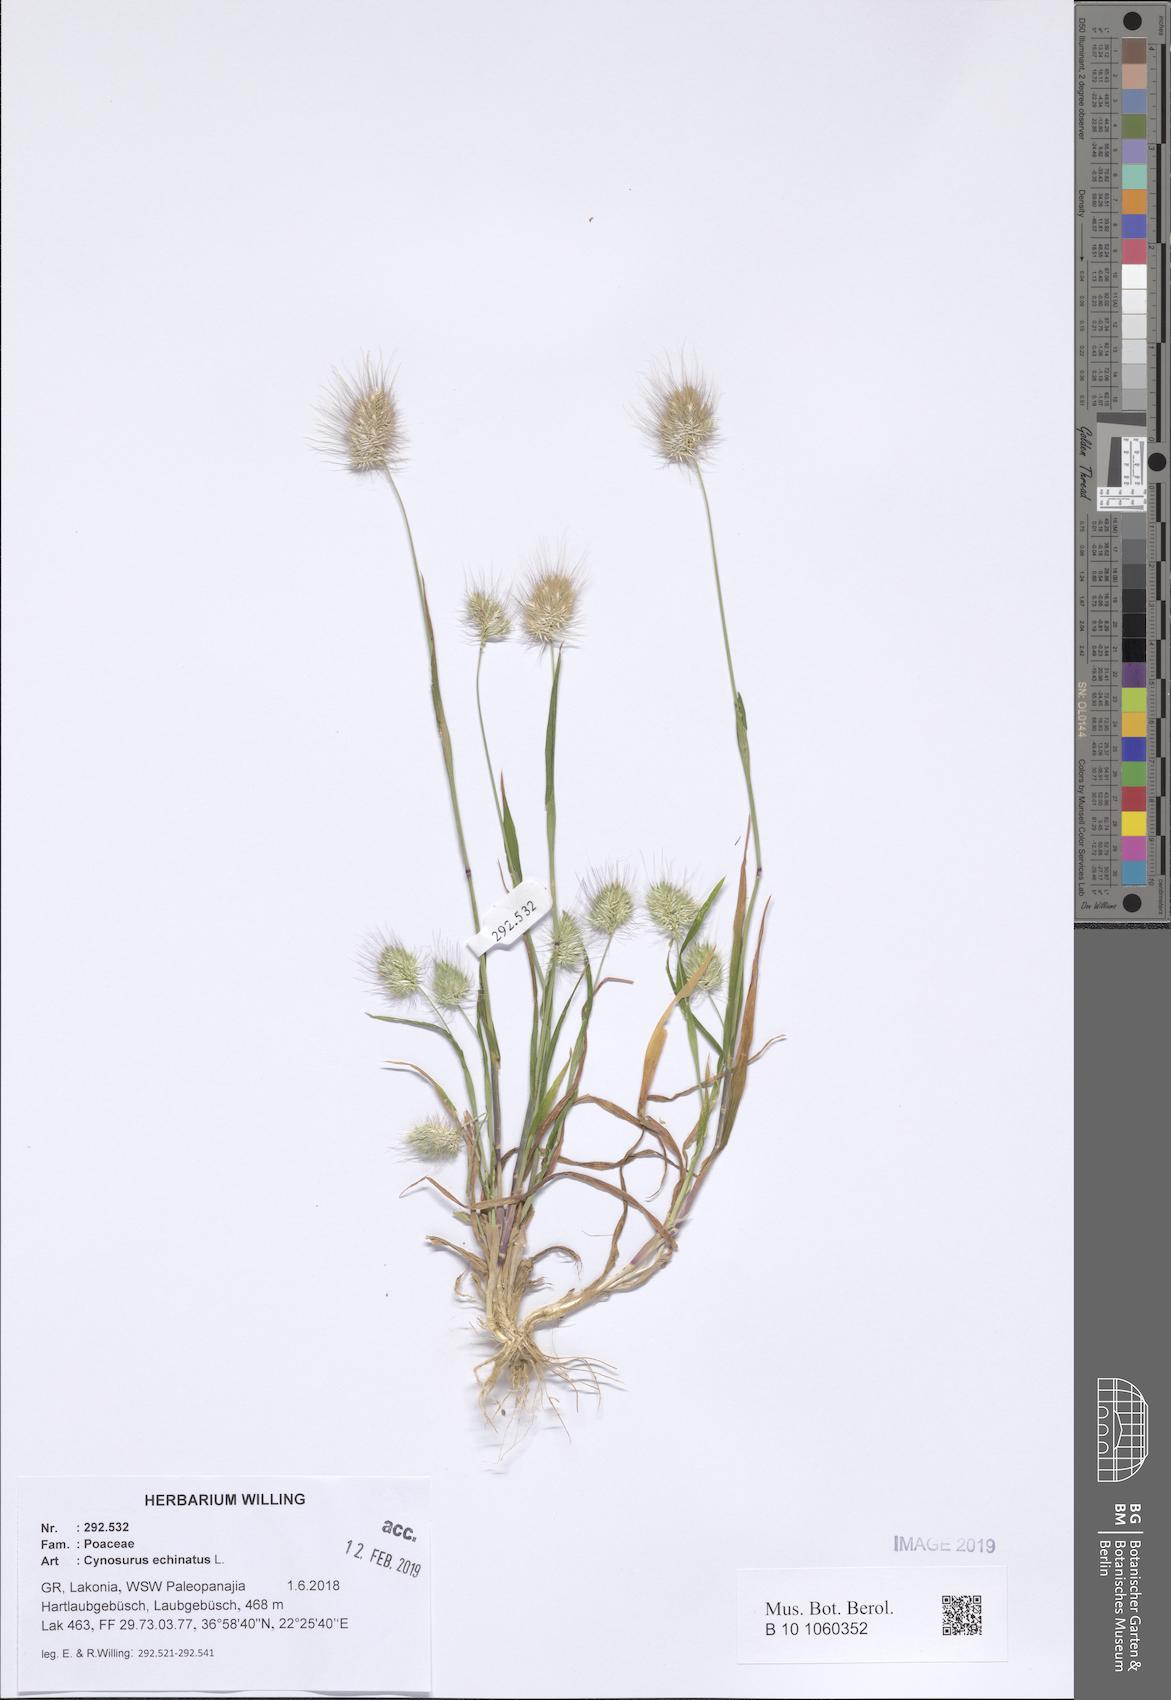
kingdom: Plantae
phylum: Tracheophyta
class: Liliopsida
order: Poales
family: Poaceae
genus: Cynosurus
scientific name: Cynosurus echinatus
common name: Rough dog's-tail
